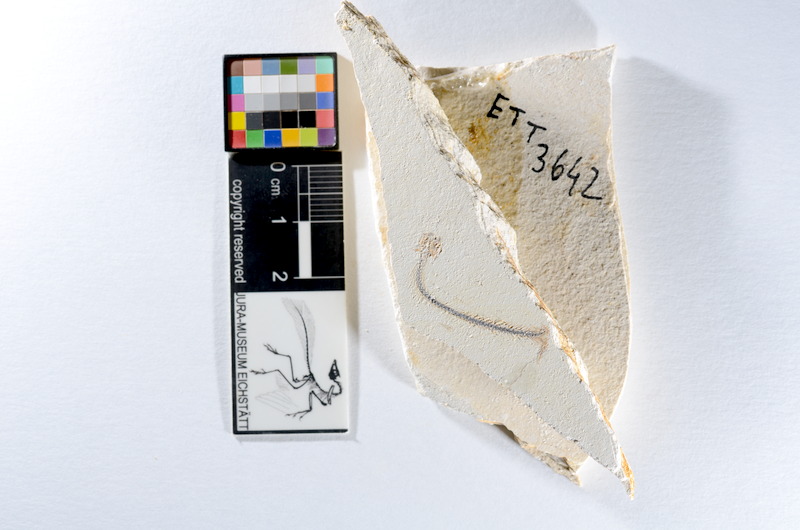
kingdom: Animalia
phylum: Chordata
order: Salmoniformes
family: Orthogonikleithridae
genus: Orthogonikleithrus
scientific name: Orthogonikleithrus hoelli
